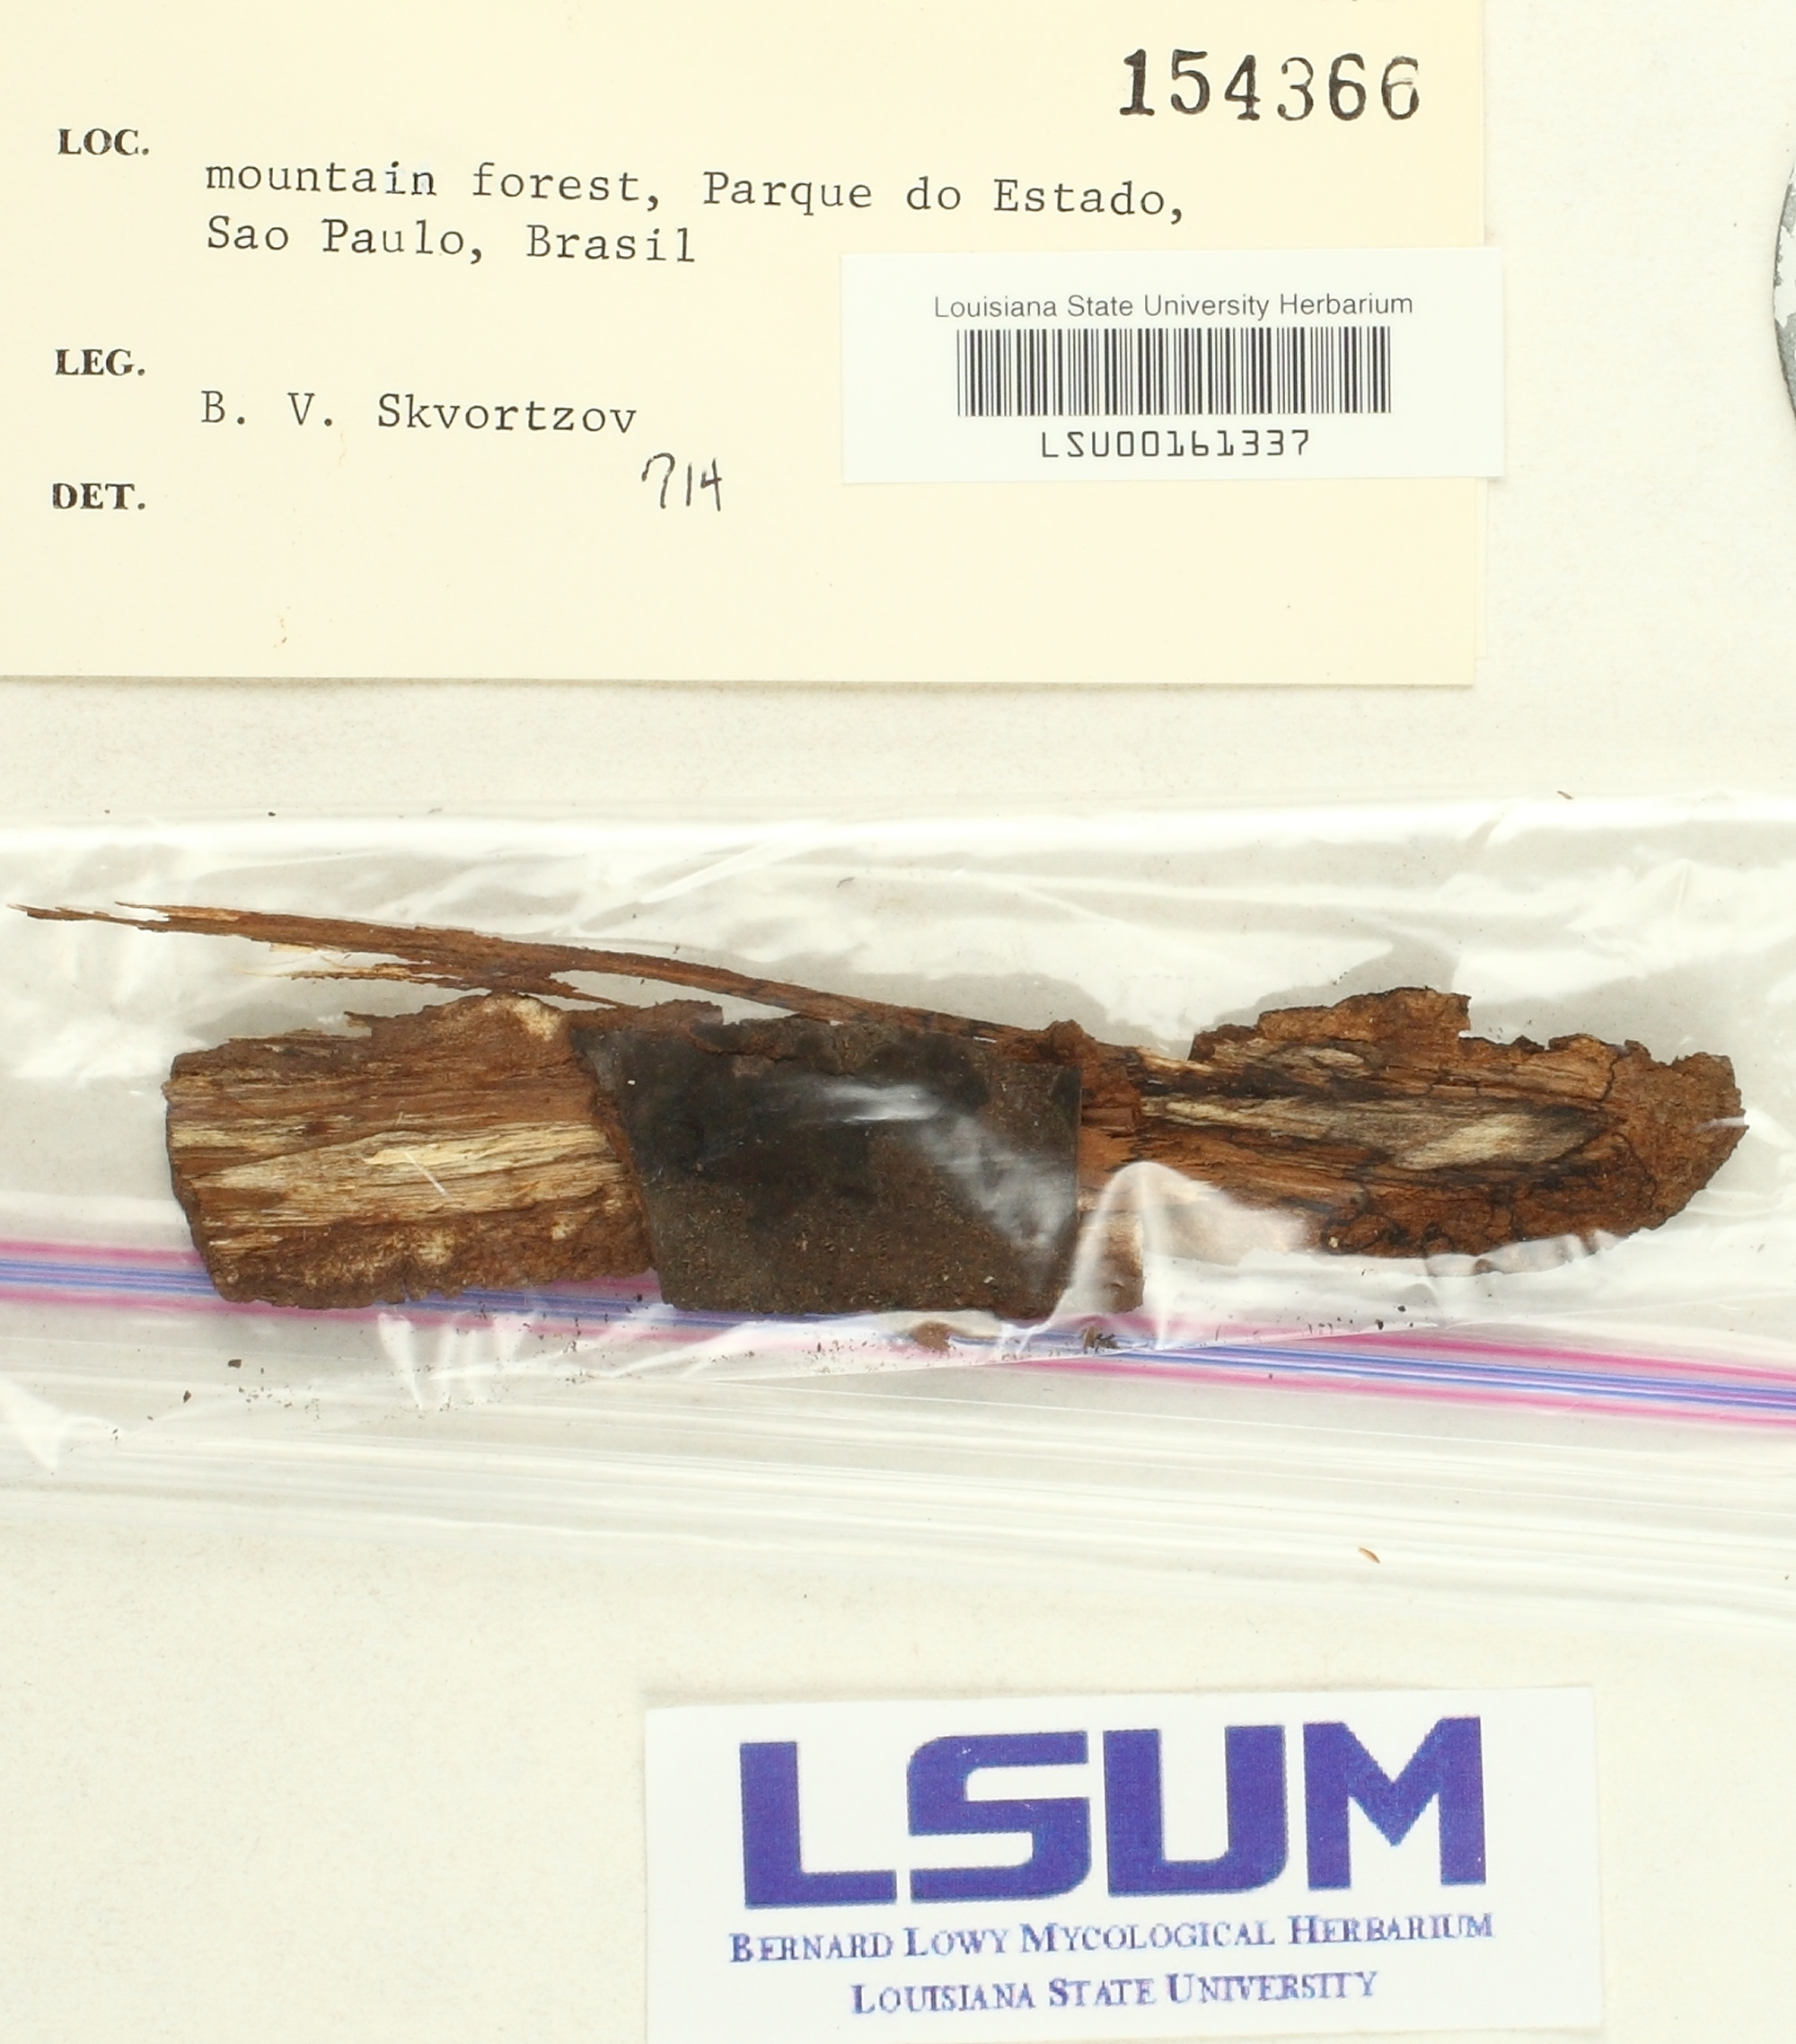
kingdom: Fungi
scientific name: Fungi
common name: Fungi
